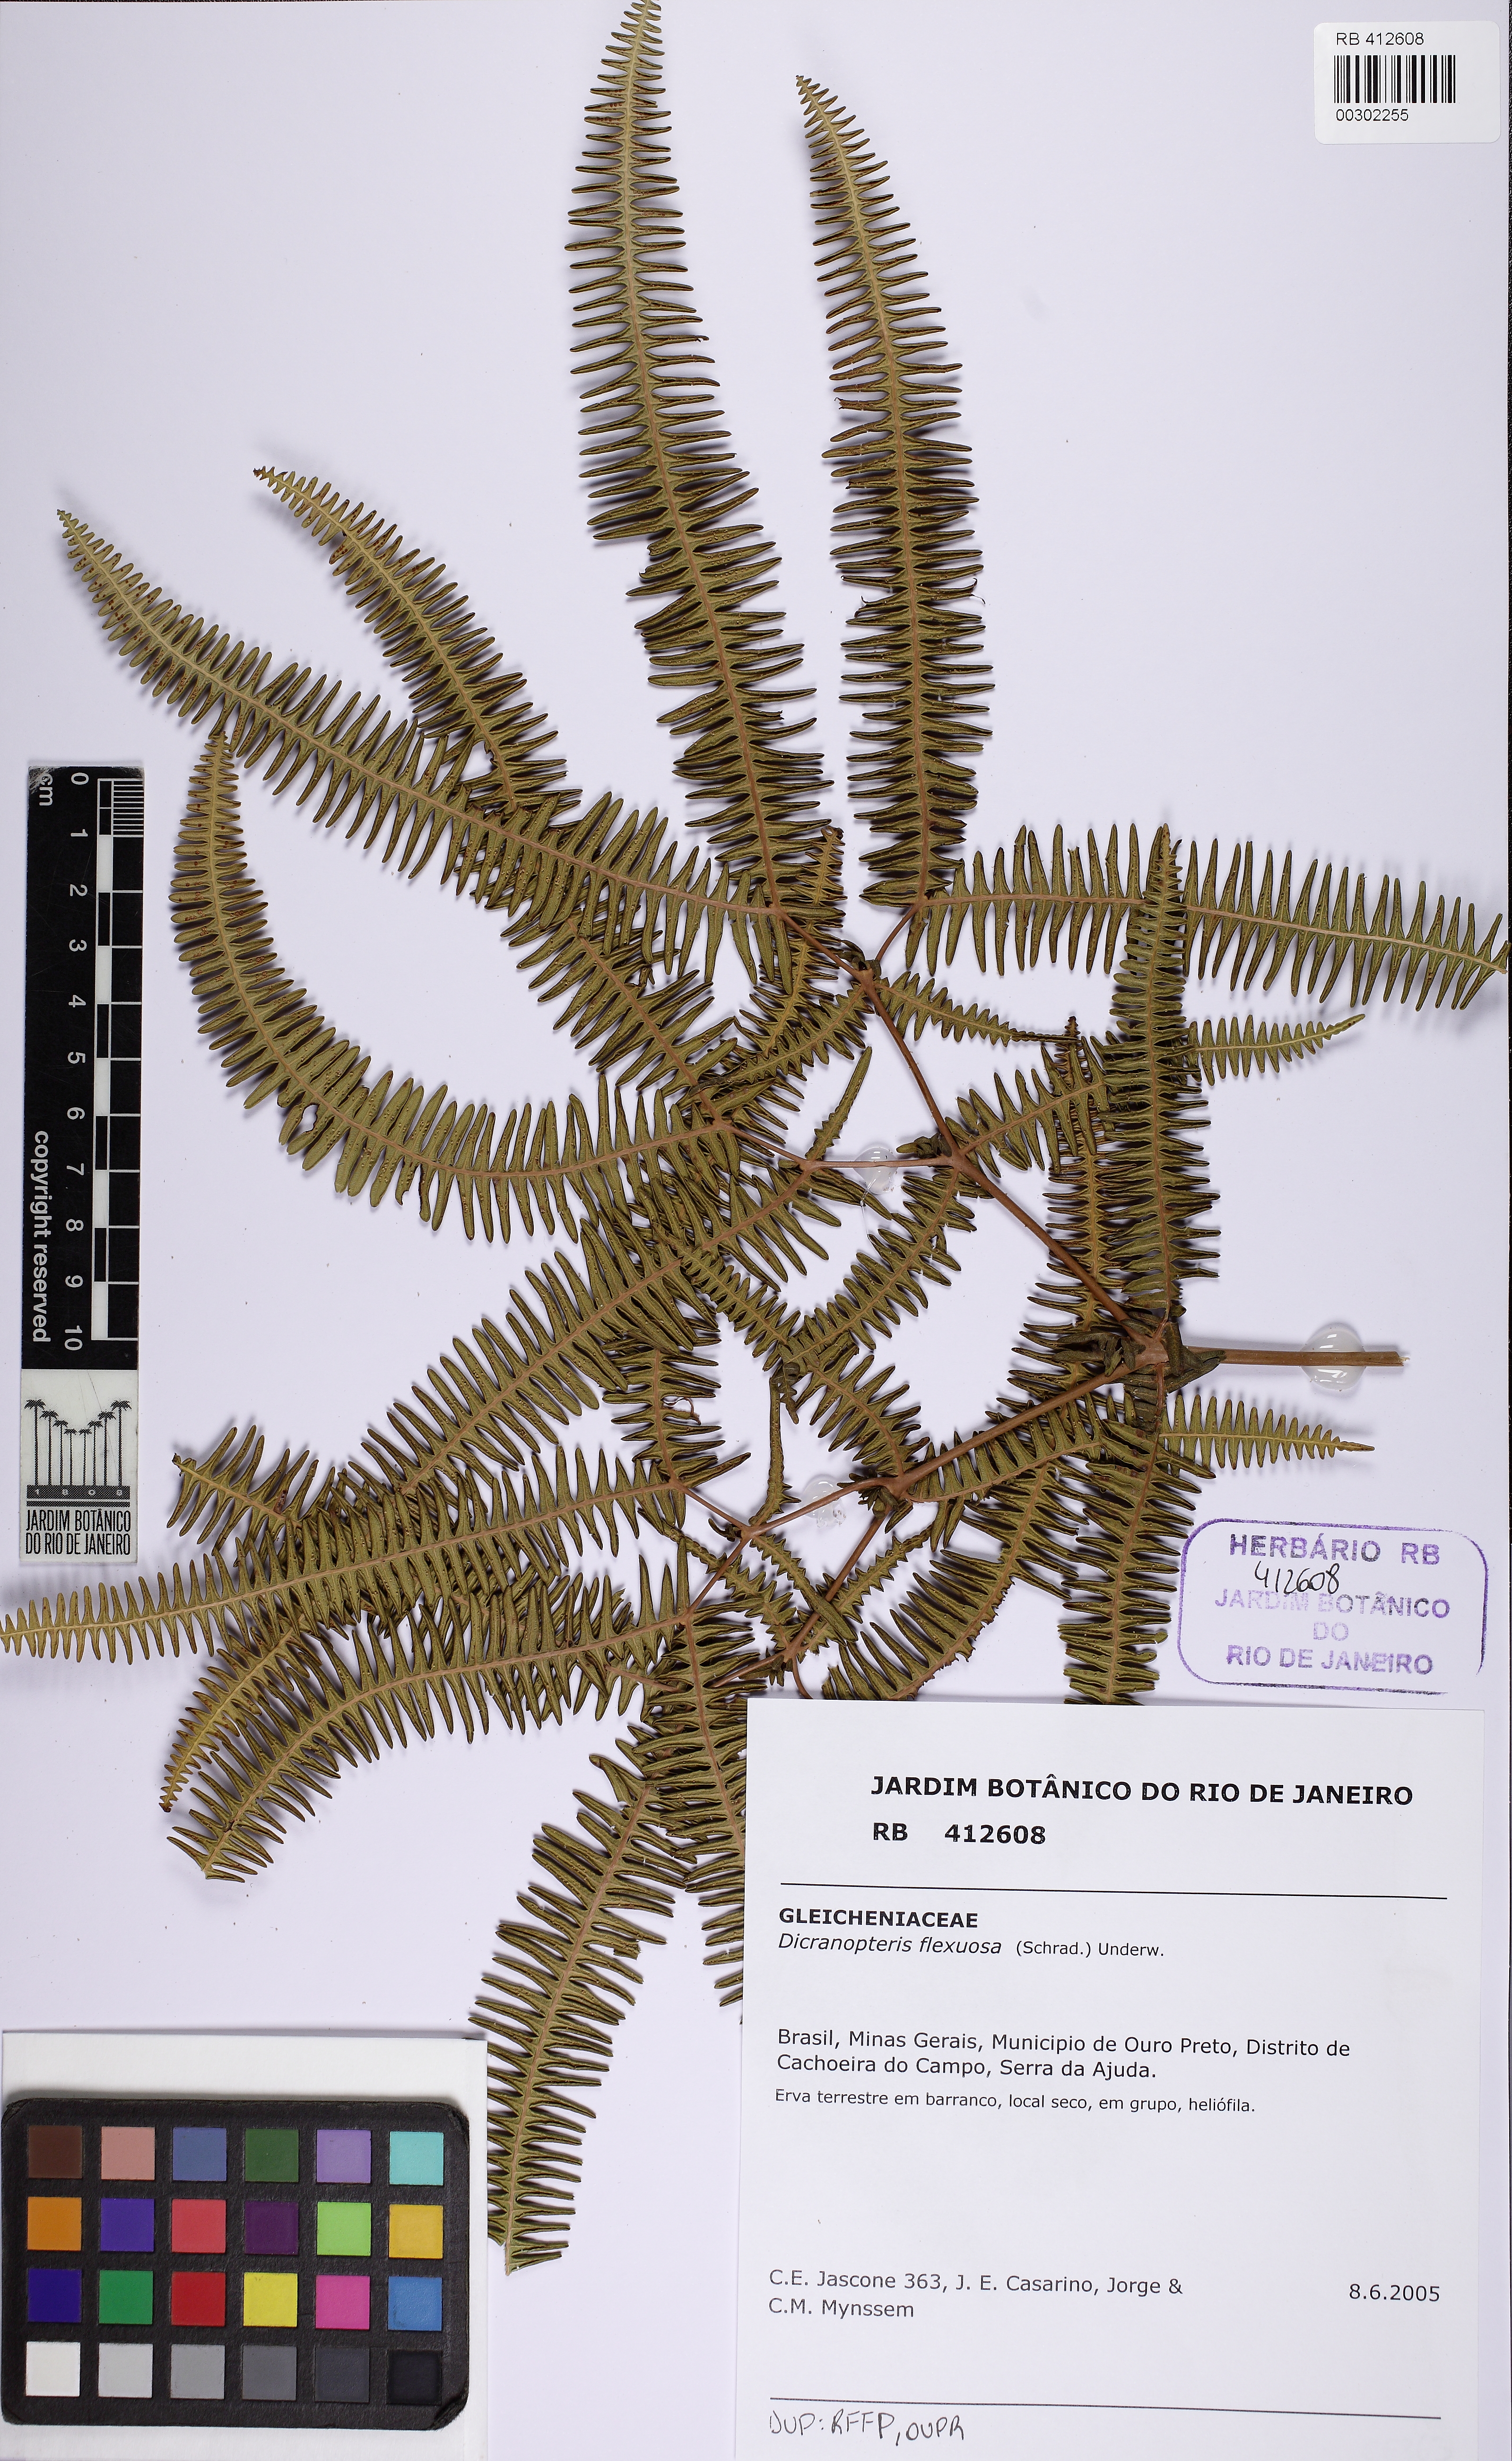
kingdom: Plantae
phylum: Tracheophyta
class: Polypodiopsida
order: Gleicheniales
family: Gleicheniaceae
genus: Dicranopteris
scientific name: Dicranopteris flexuosa
